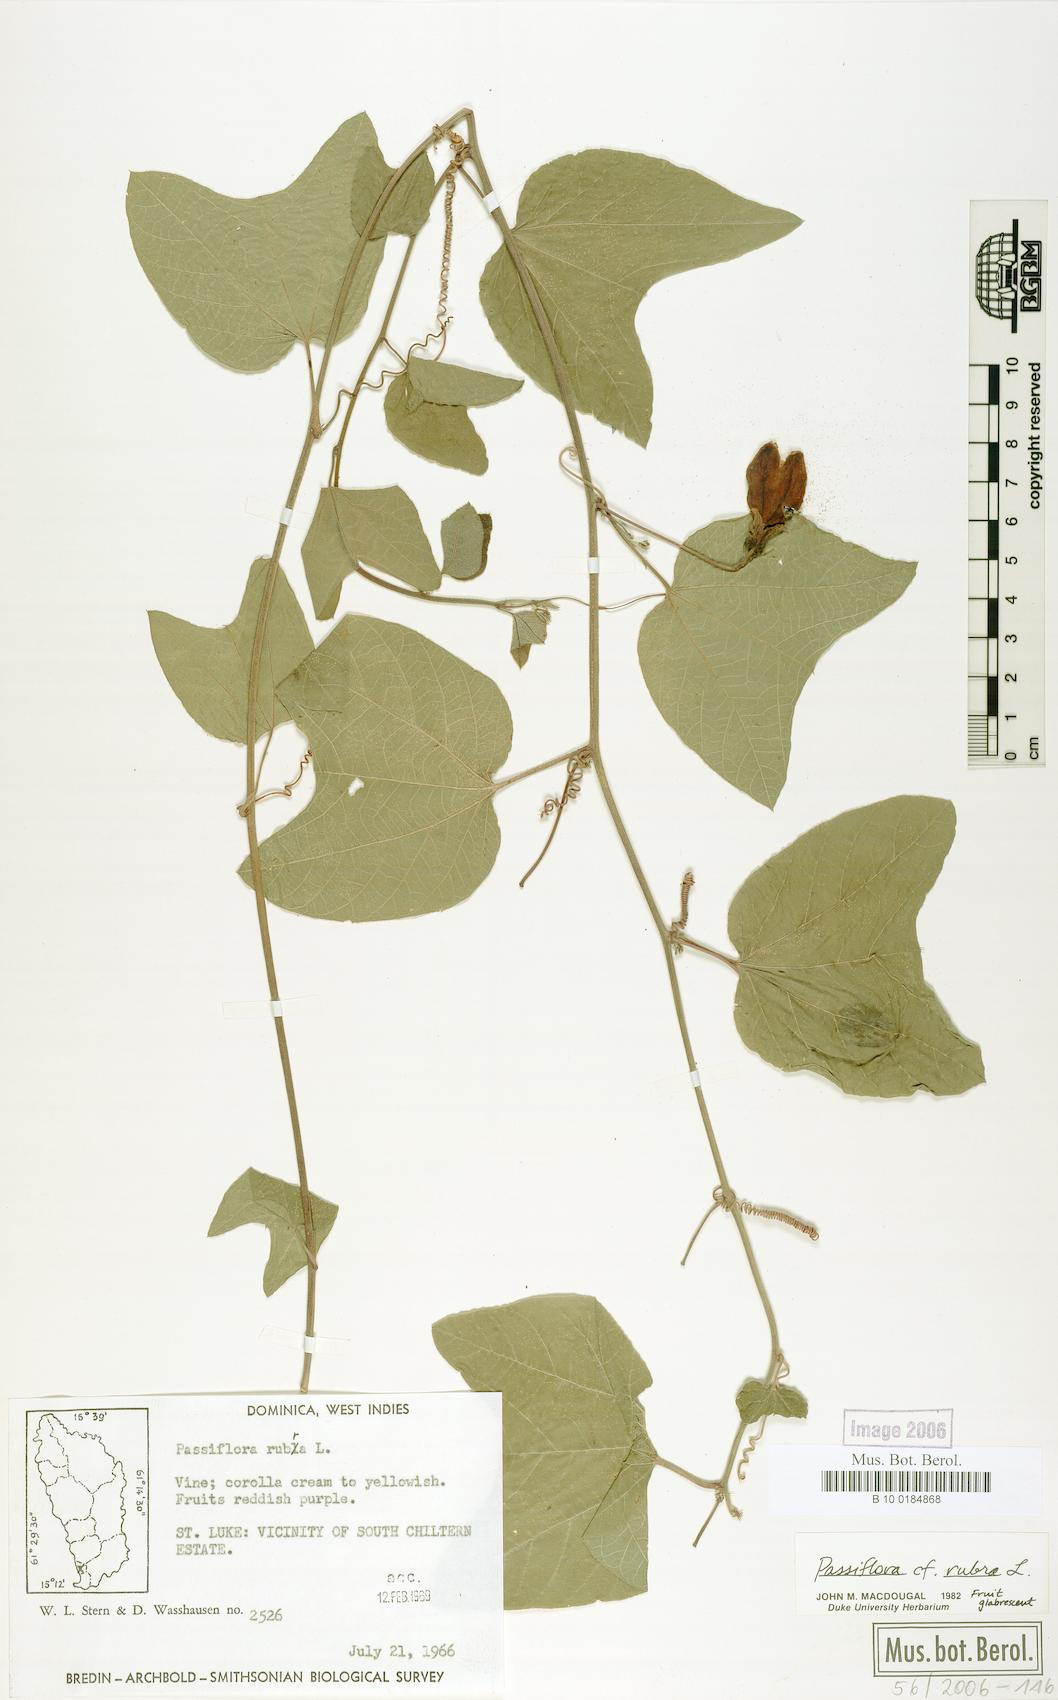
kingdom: Plantae
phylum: Tracheophyta
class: Magnoliopsida
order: Malpighiales
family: Passifloraceae
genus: Passiflora
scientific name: Passiflora rubra
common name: Snakeberry vine
